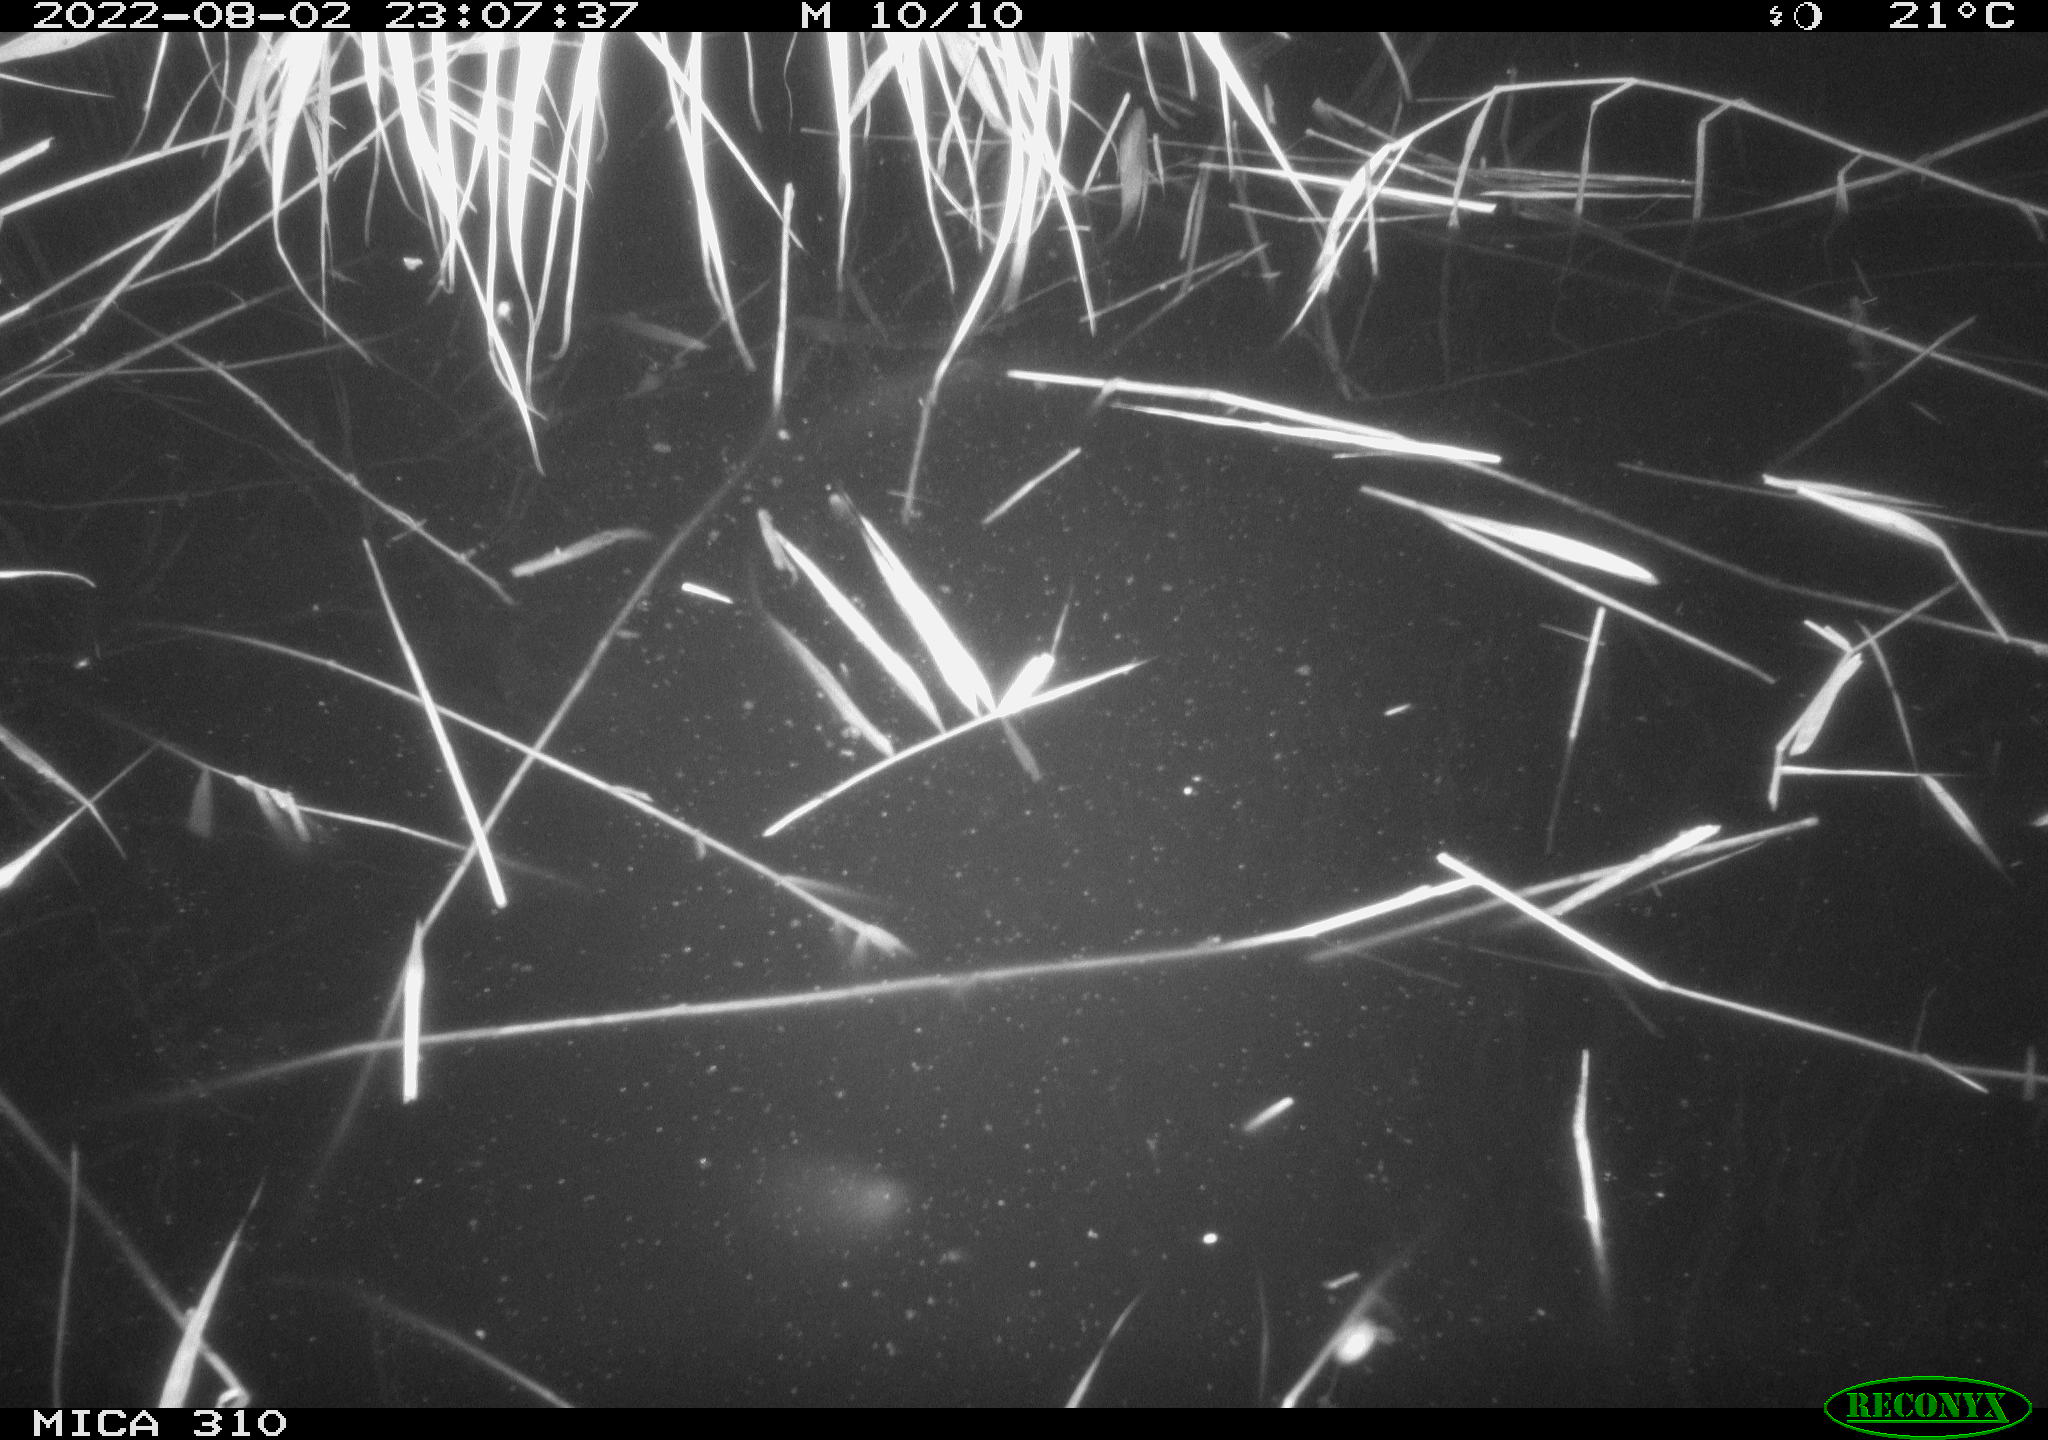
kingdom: Animalia
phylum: Chordata
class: Aves
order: Anseriformes
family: Anatidae
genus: Anas
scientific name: Anas platyrhynchos
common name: Mallard
